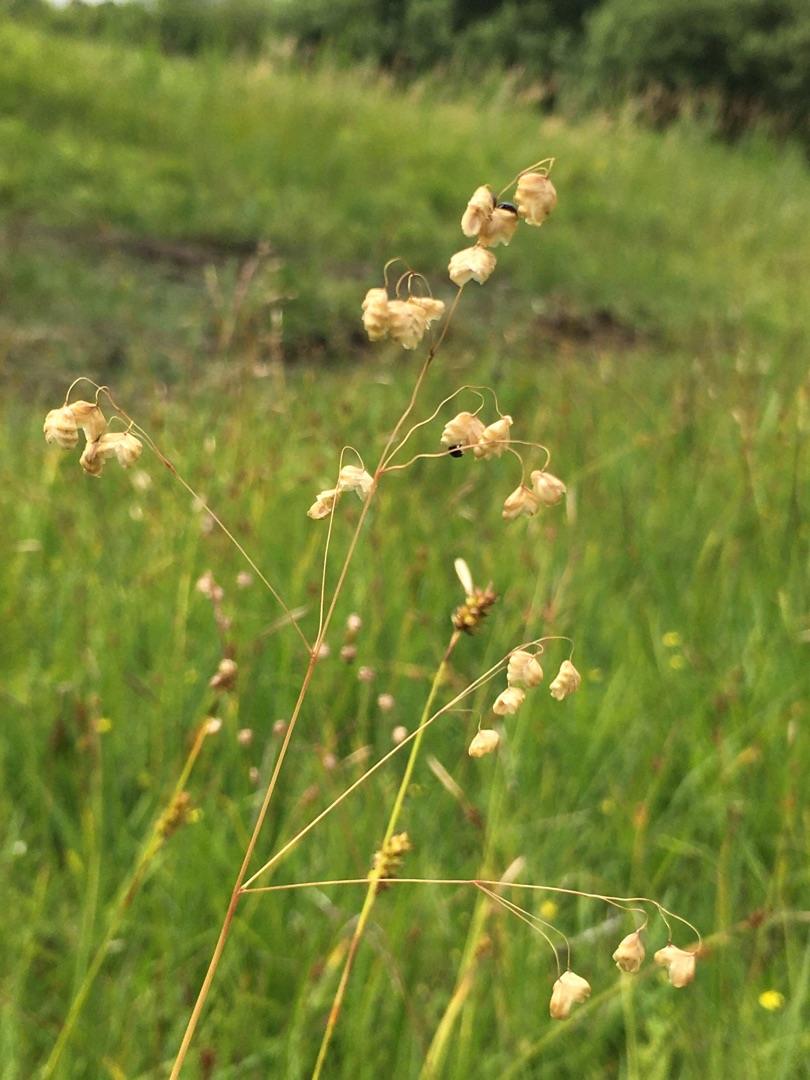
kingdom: Plantae
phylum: Tracheophyta
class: Liliopsida
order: Poales
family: Poaceae
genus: Briza
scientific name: Briza media
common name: Hjertegræs
